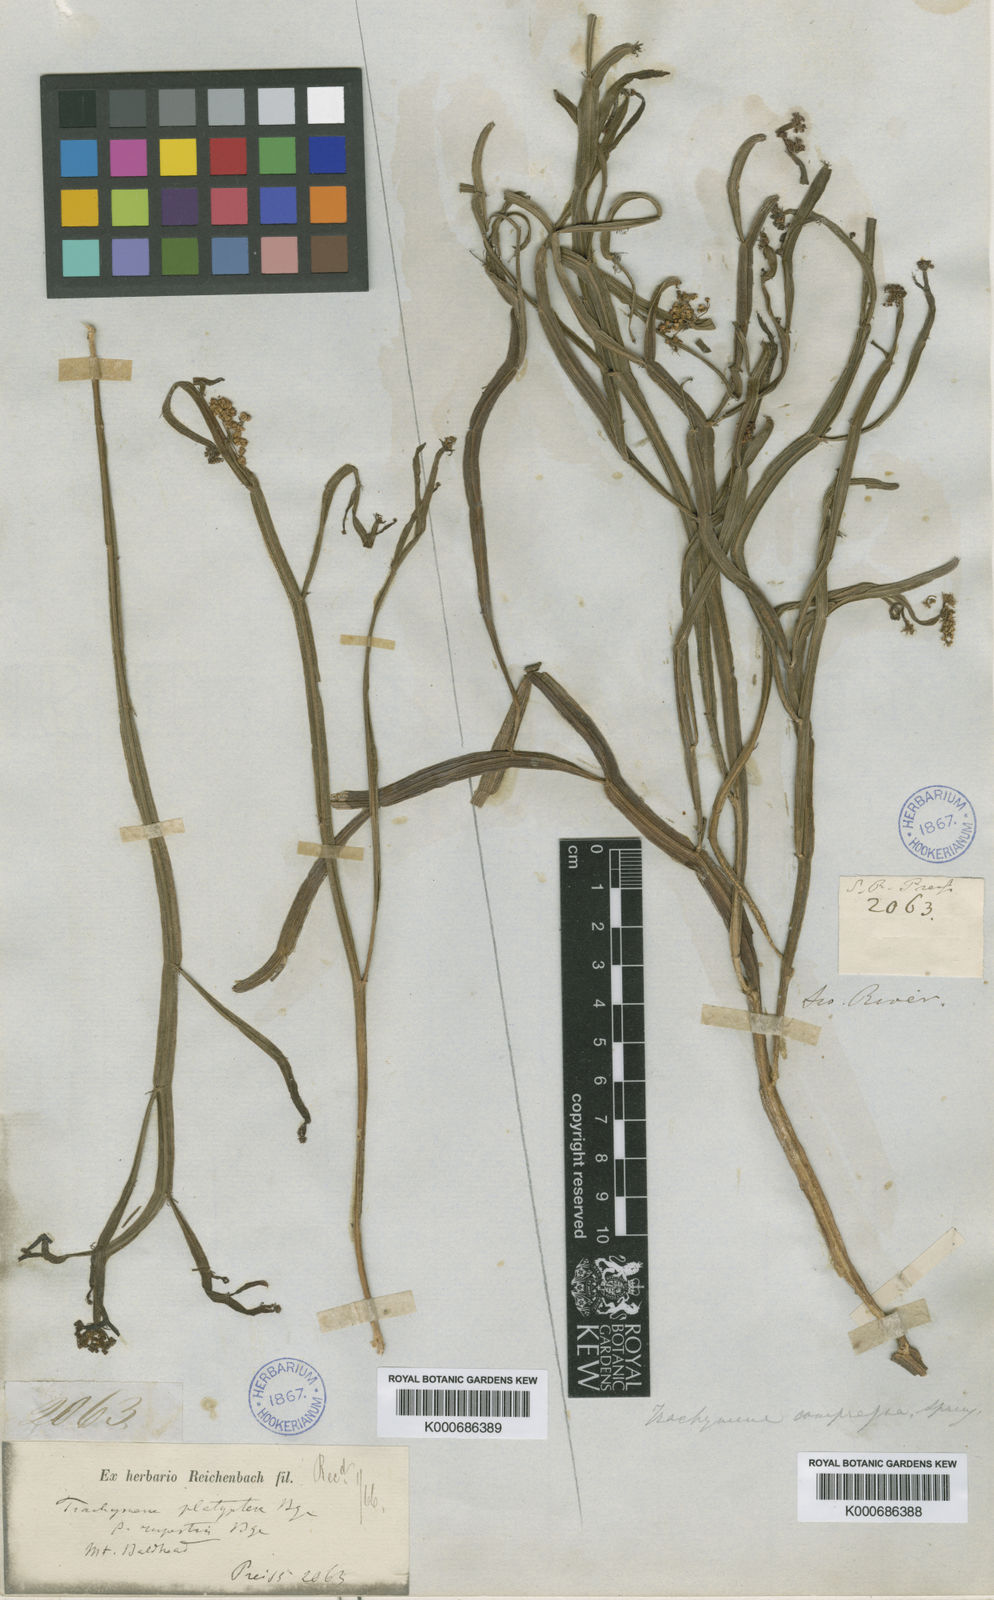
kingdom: Plantae
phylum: Tracheophyta
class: Magnoliopsida
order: Apiales
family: Apiaceae
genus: Platysace
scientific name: Platysace compressa
